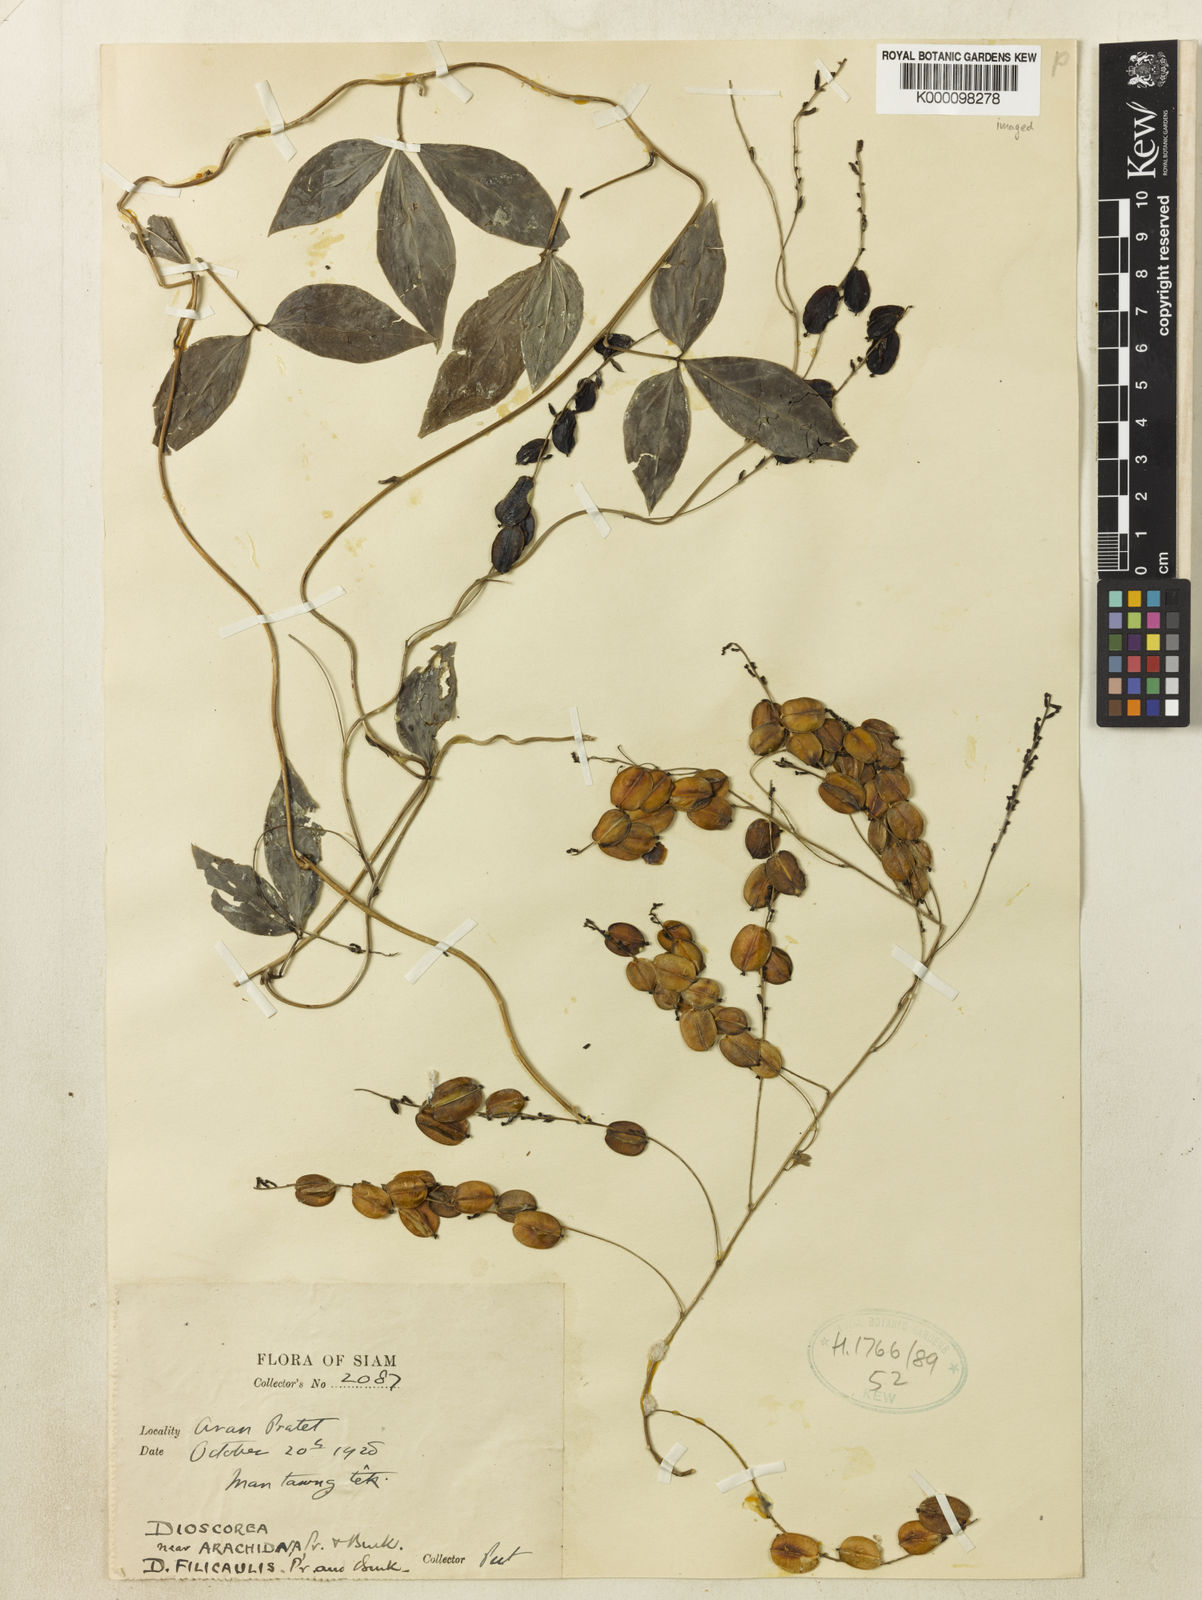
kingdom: Plantae
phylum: Tracheophyta
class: Liliopsida
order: Dioscoreales
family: Dioscoreaceae
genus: Dioscorea
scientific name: Dioscorea arachidna
